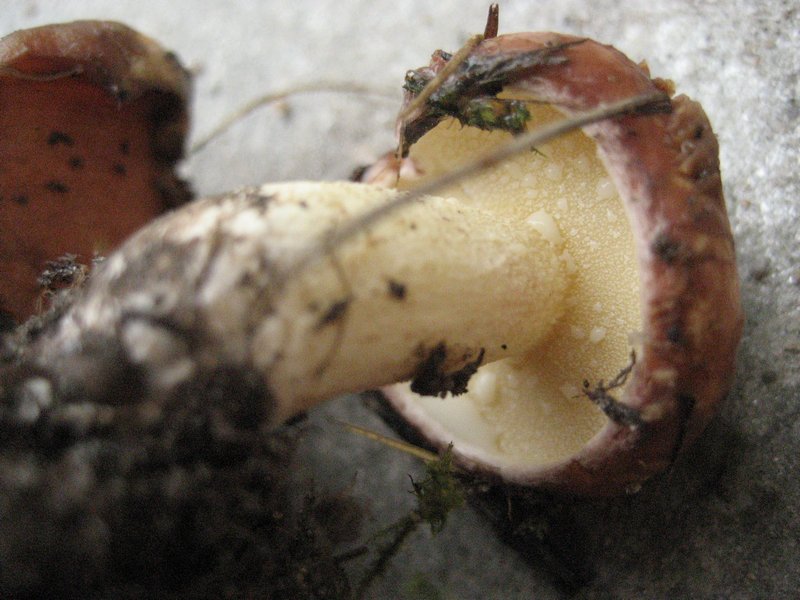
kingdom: Fungi
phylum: Basidiomycota
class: Agaricomycetes
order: Boletales
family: Suillaceae
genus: Suillus
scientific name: Suillus granulatus
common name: kornet slimrørhat
